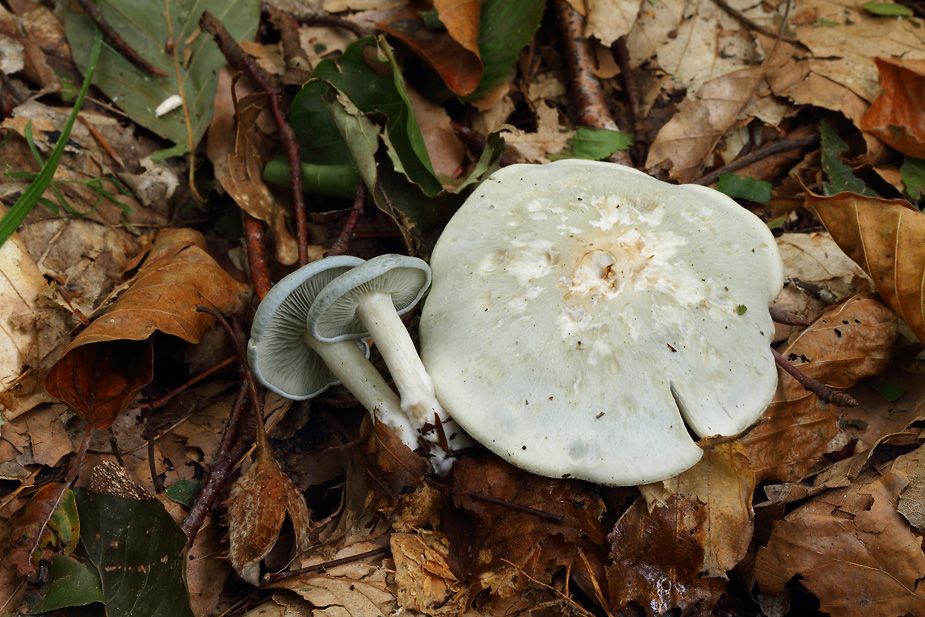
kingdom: Fungi
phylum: Basidiomycota
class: Agaricomycetes
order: Agaricales
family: Tricholomataceae
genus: Clitocybe
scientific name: Clitocybe odora
